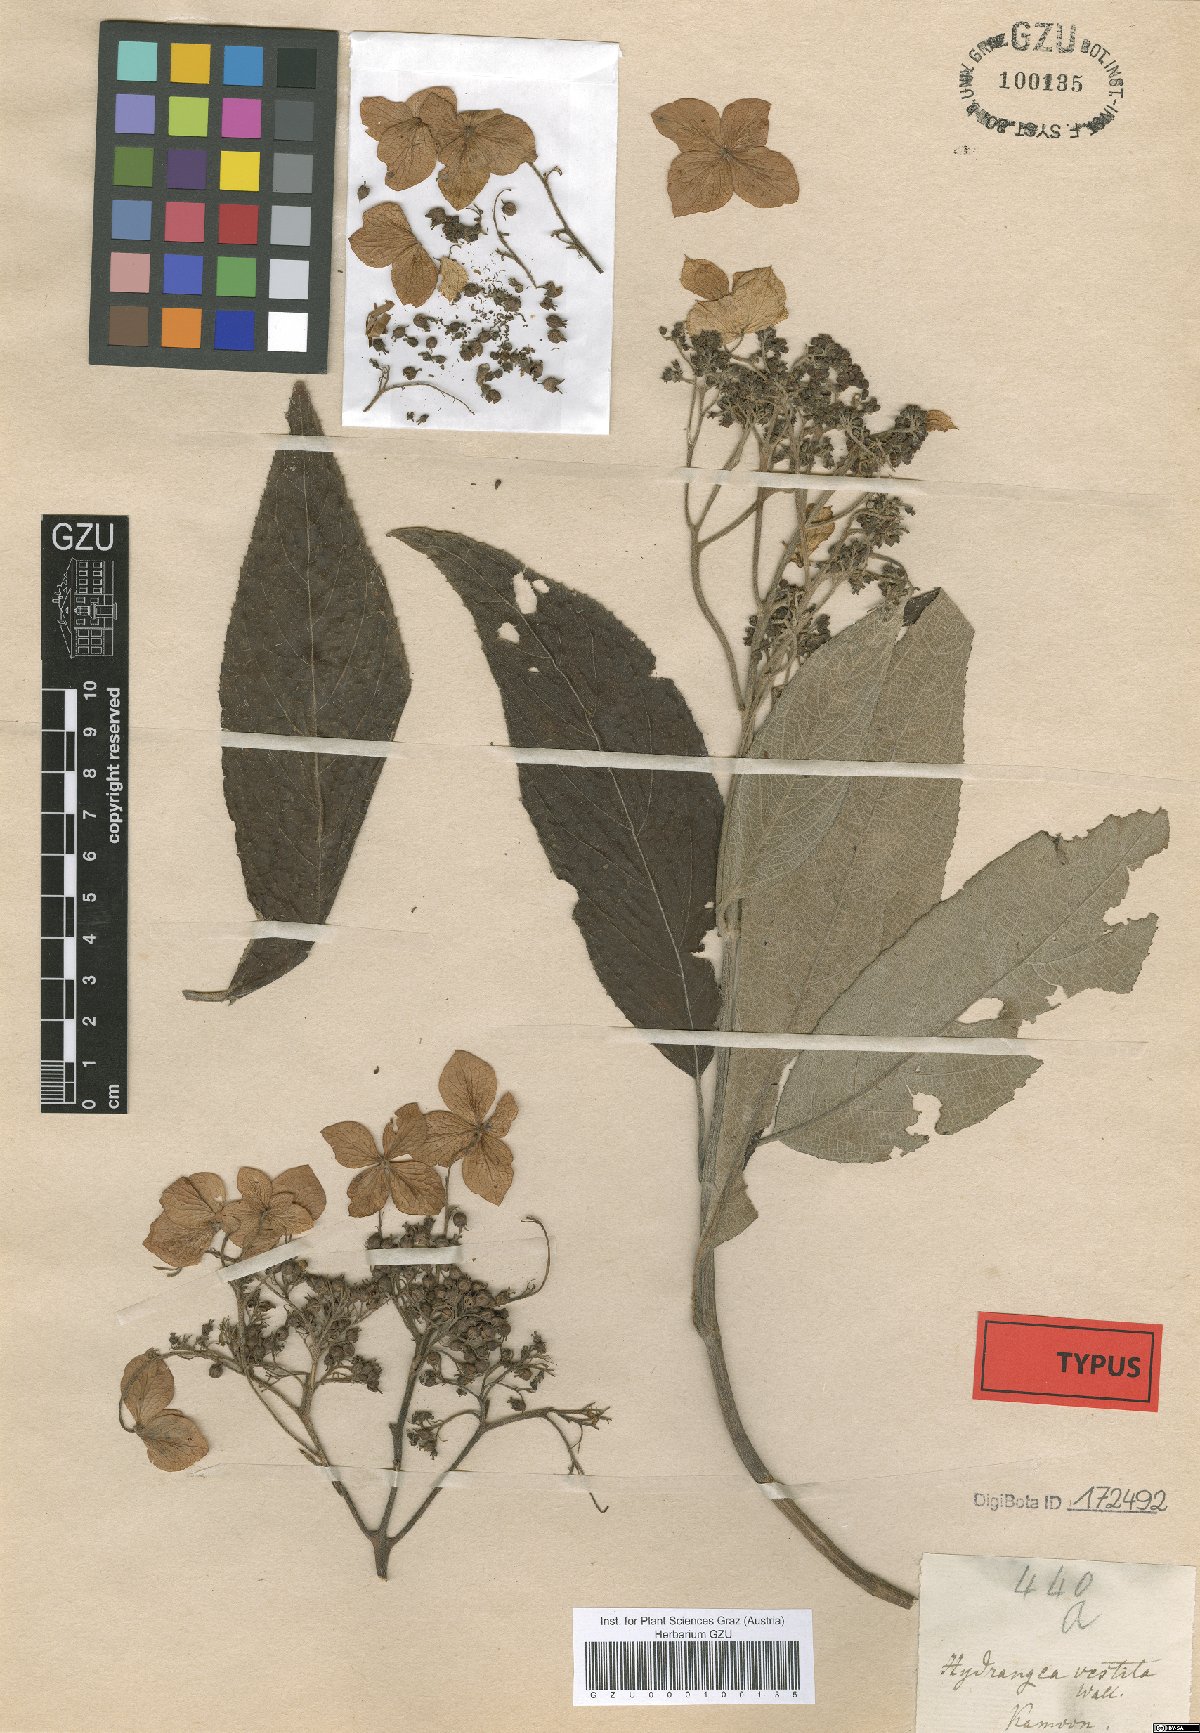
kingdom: Plantae
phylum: Tracheophyta
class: Magnoliopsida
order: Cornales
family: Hydrangeaceae
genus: Hydrangea
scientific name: Hydrangea heteromalla
